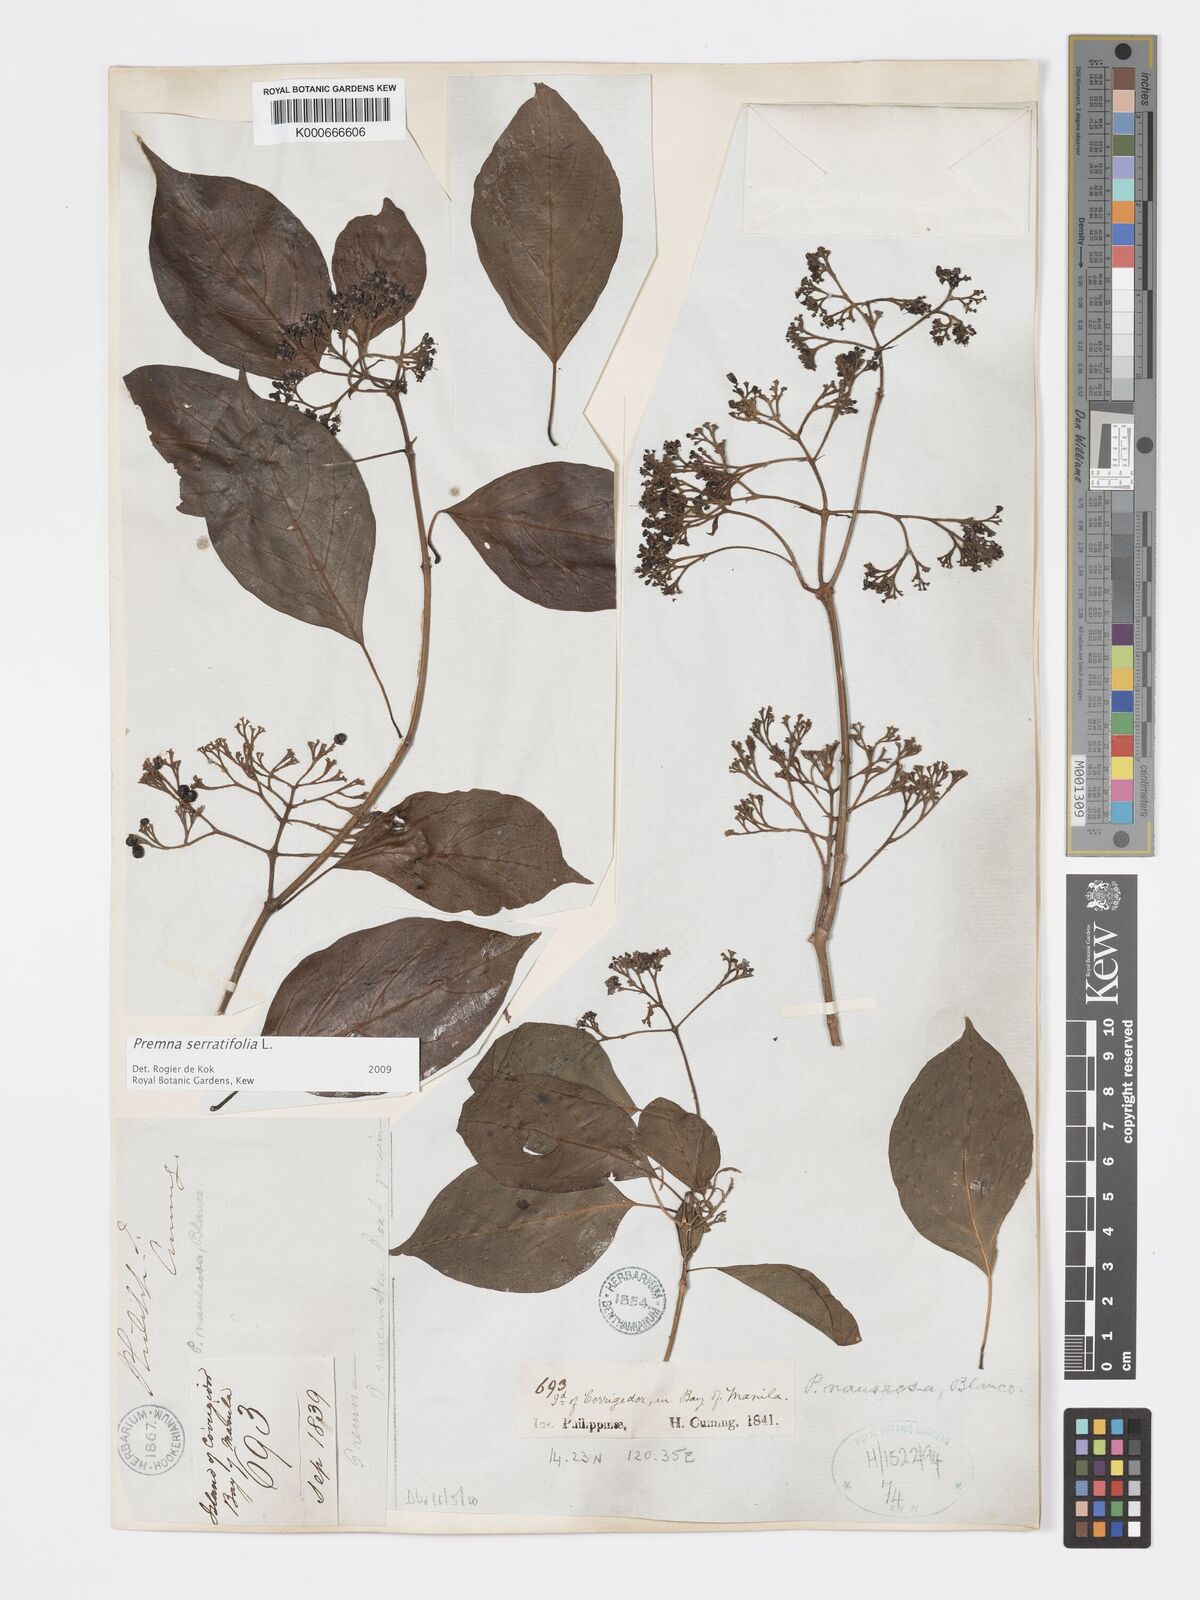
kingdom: Plantae
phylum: Tracheophyta
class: Magnoliopsida
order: Lamiales
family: Lamiaceae
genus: Premna
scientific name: Premna serratifolia
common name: Bastard guelder
